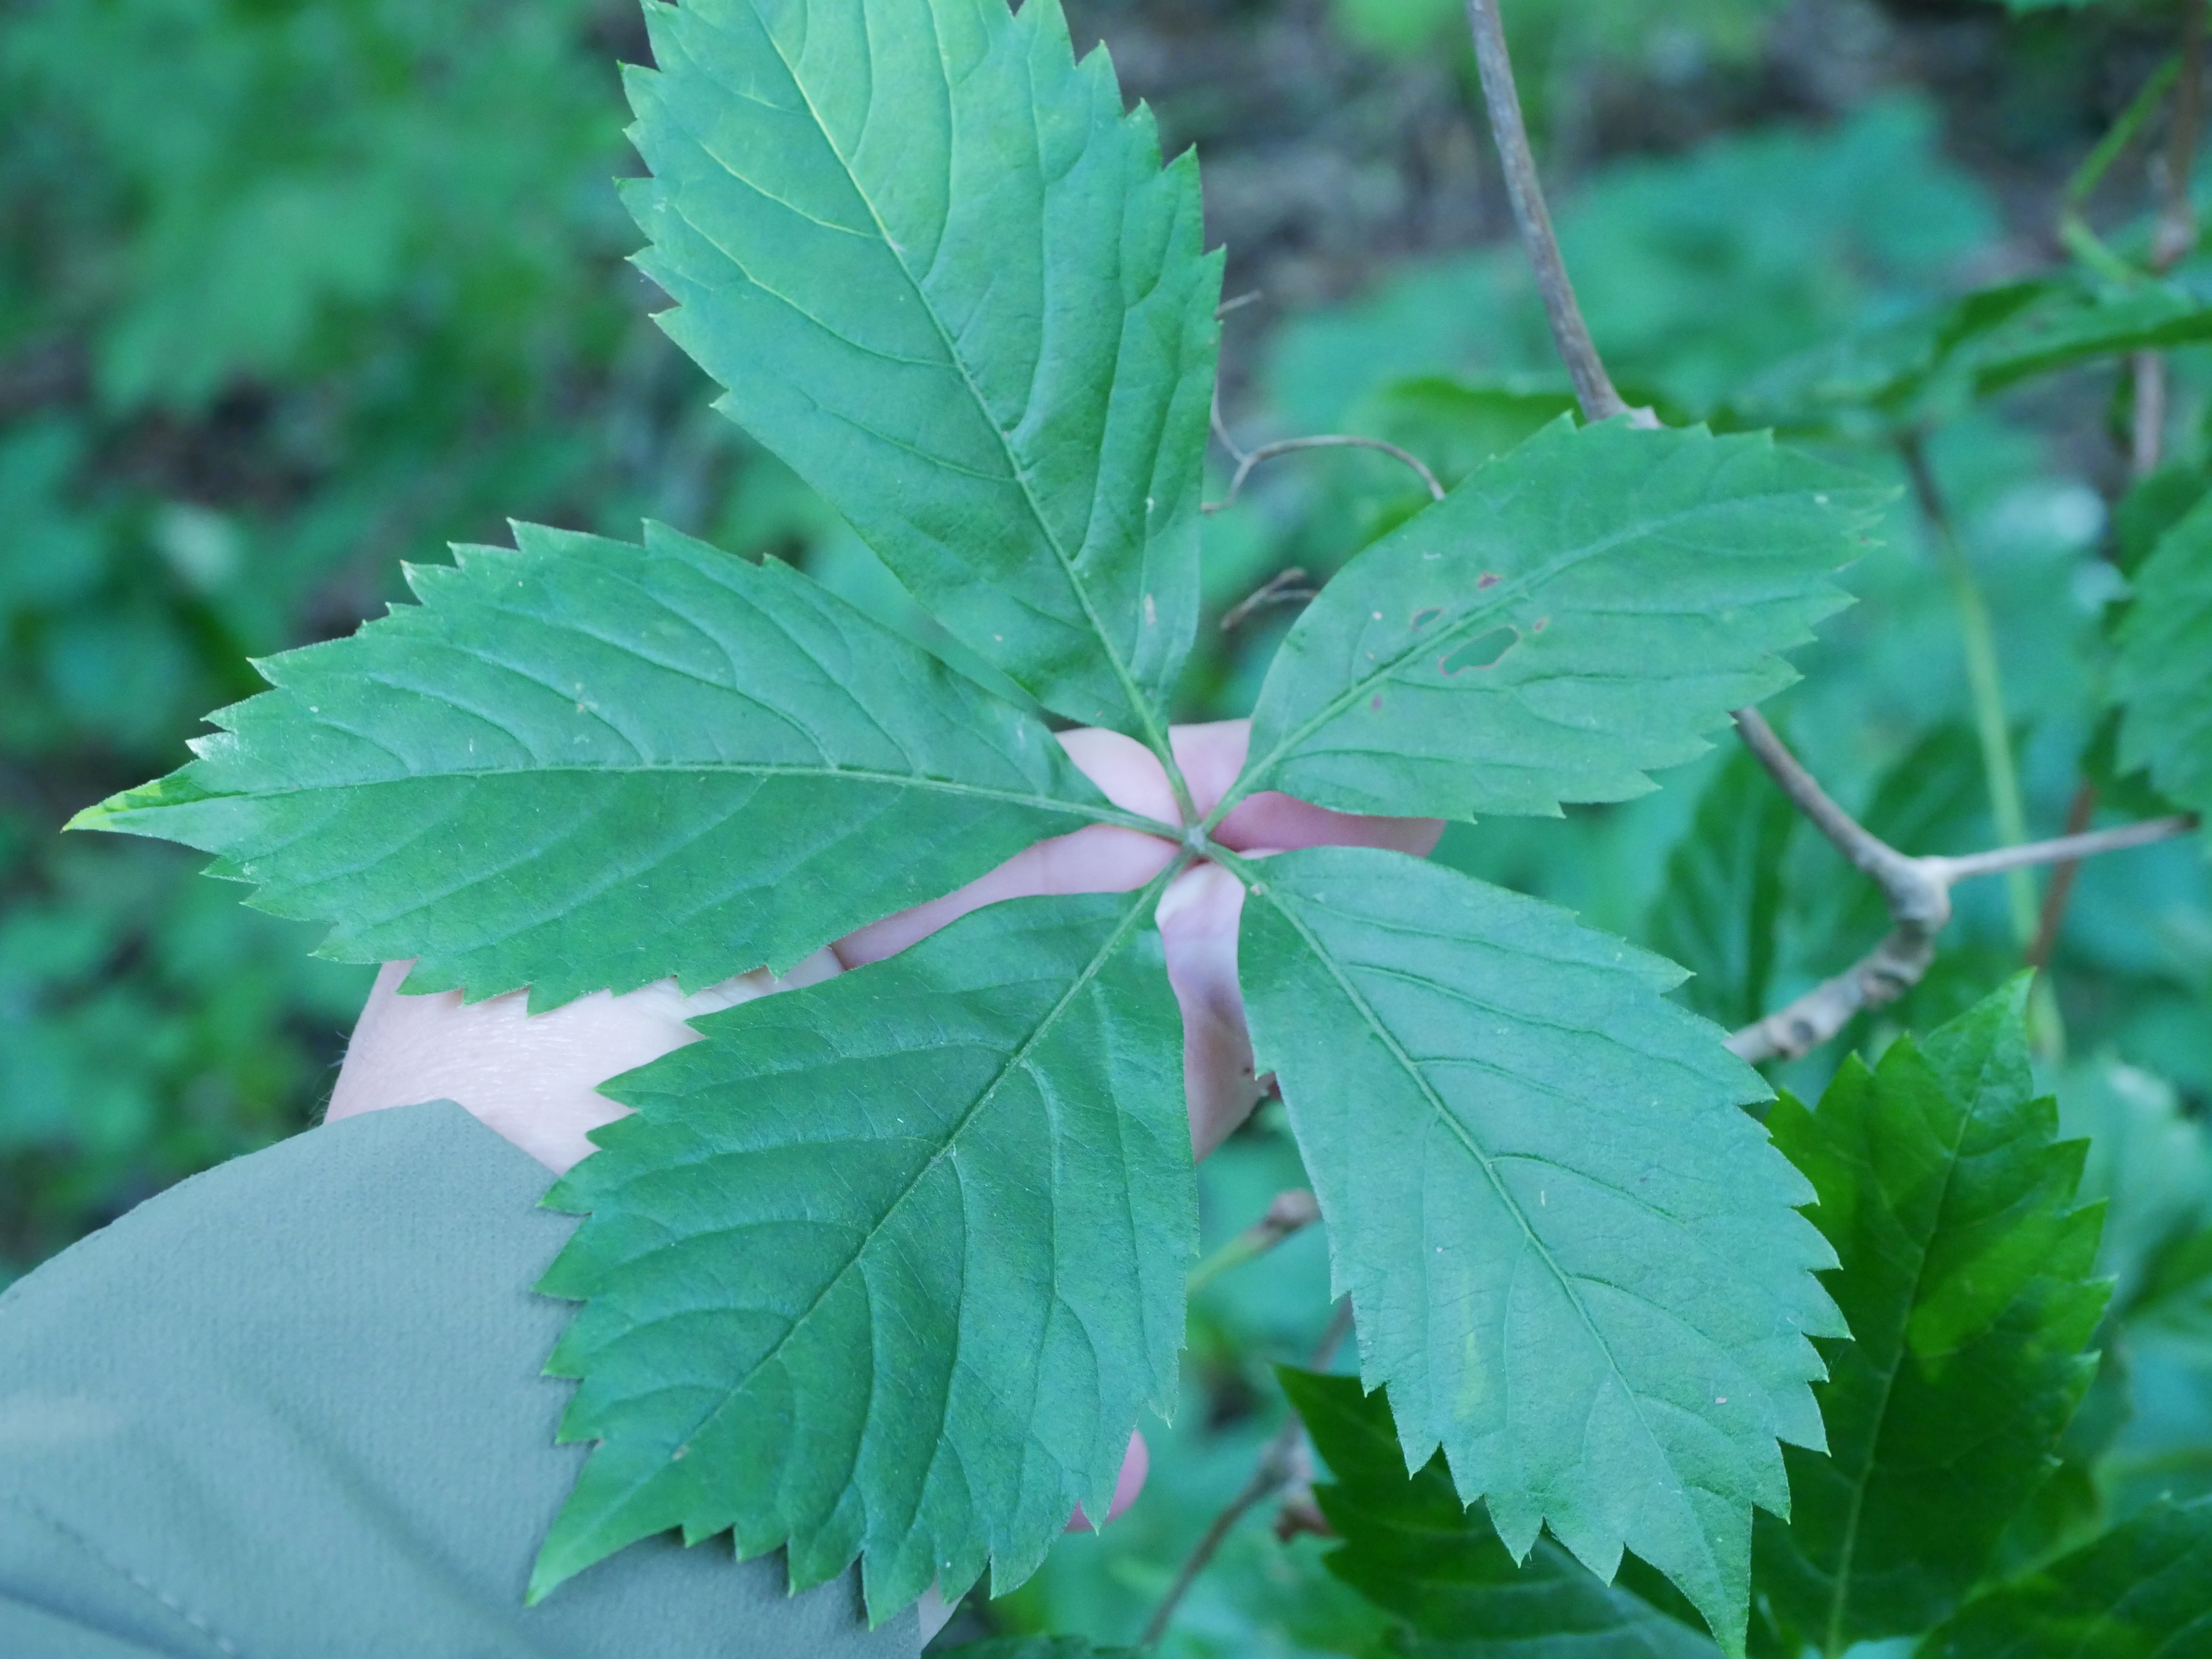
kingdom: Plantae
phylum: Tracheophyta
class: Magnoliopsida
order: Vitales
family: Vitaceae
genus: Parthenocissus
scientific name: Parthenocissus inserta
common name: Vildvin
